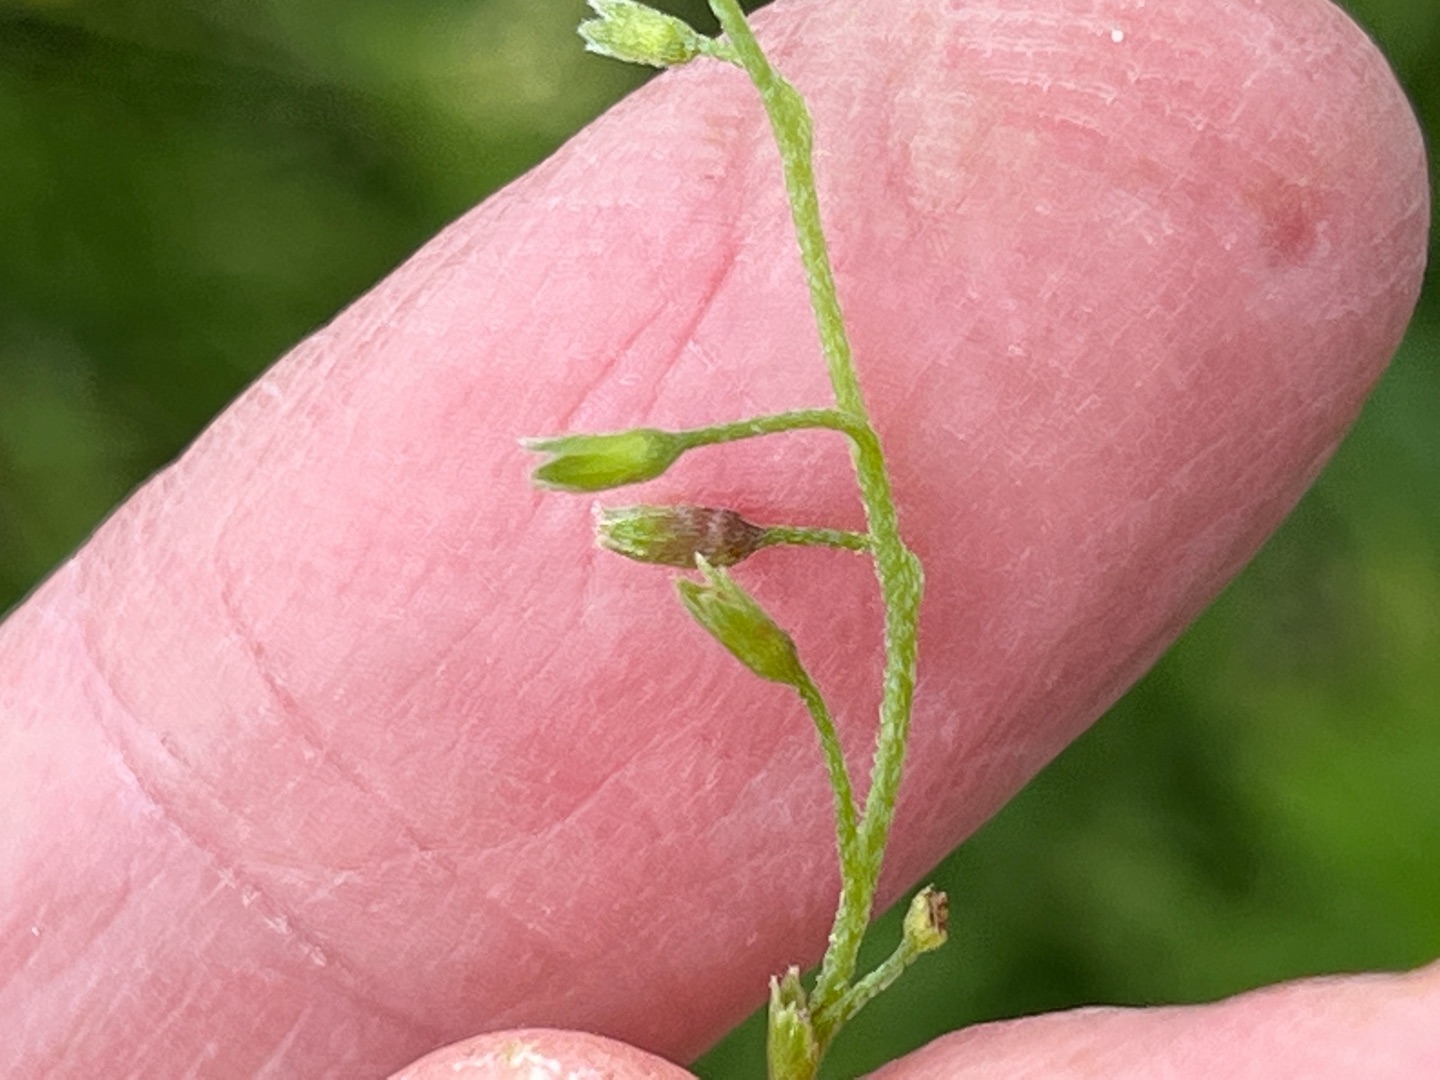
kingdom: Animalia
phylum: Arthropoda
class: Insecta
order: Diptera
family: Cecidomyiidae
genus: Dasineura
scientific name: Dasineura myosotidis
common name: Forglemmigejgalmyg
